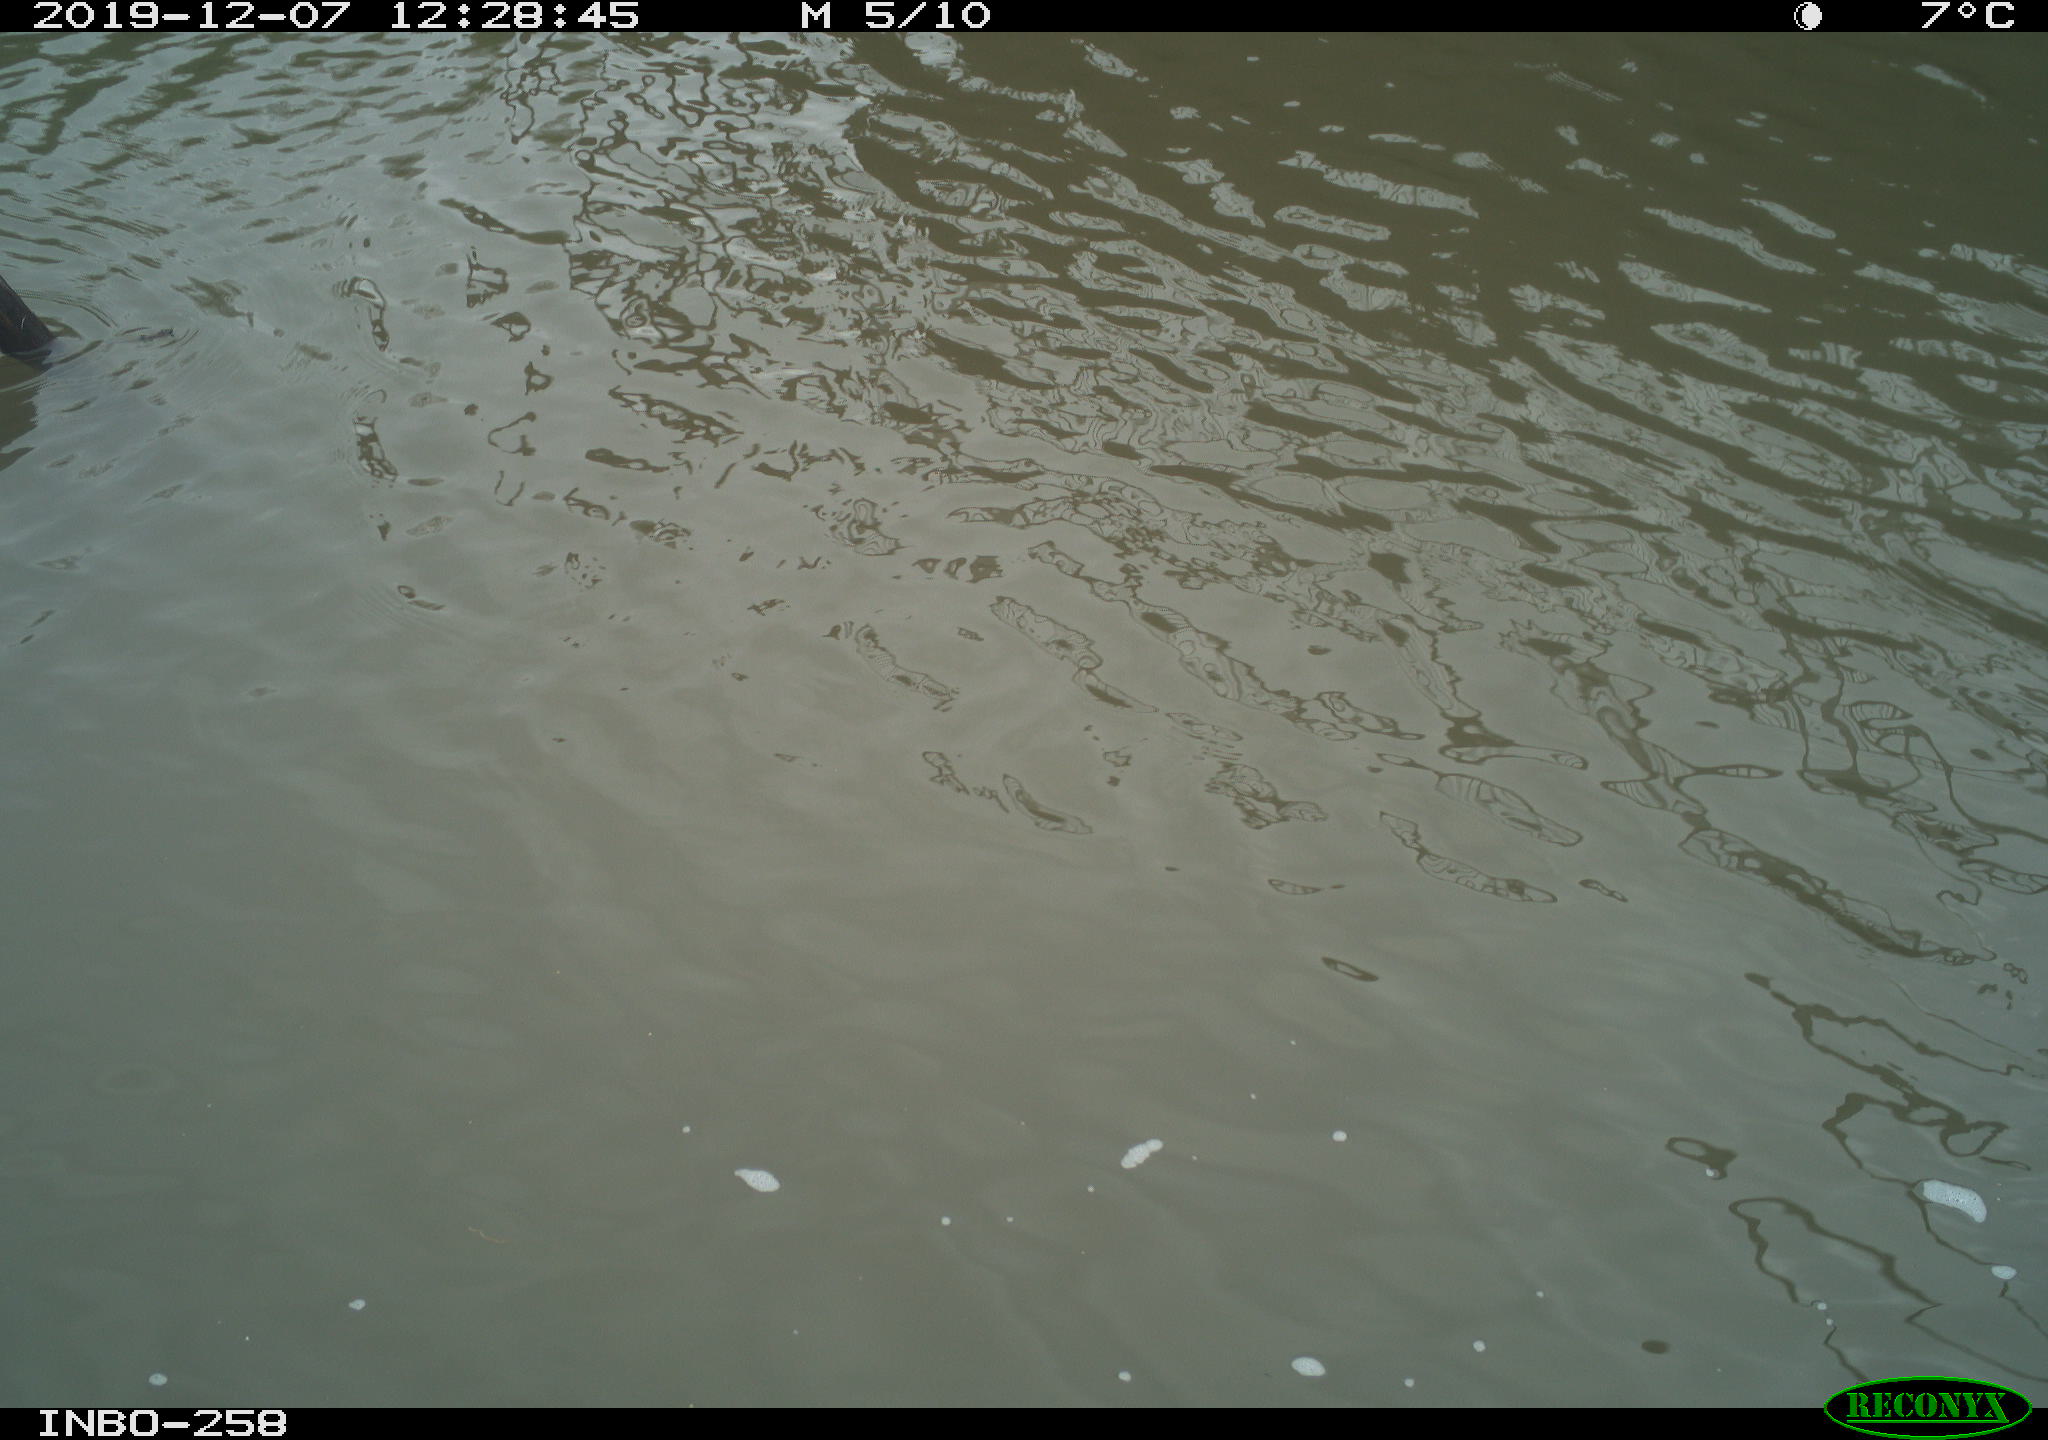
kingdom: Animalia
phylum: Chordata
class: Aves
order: Gruiformes
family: Rallidae
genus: Gallinula
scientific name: Gallinula chloropus
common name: Common moorhen
